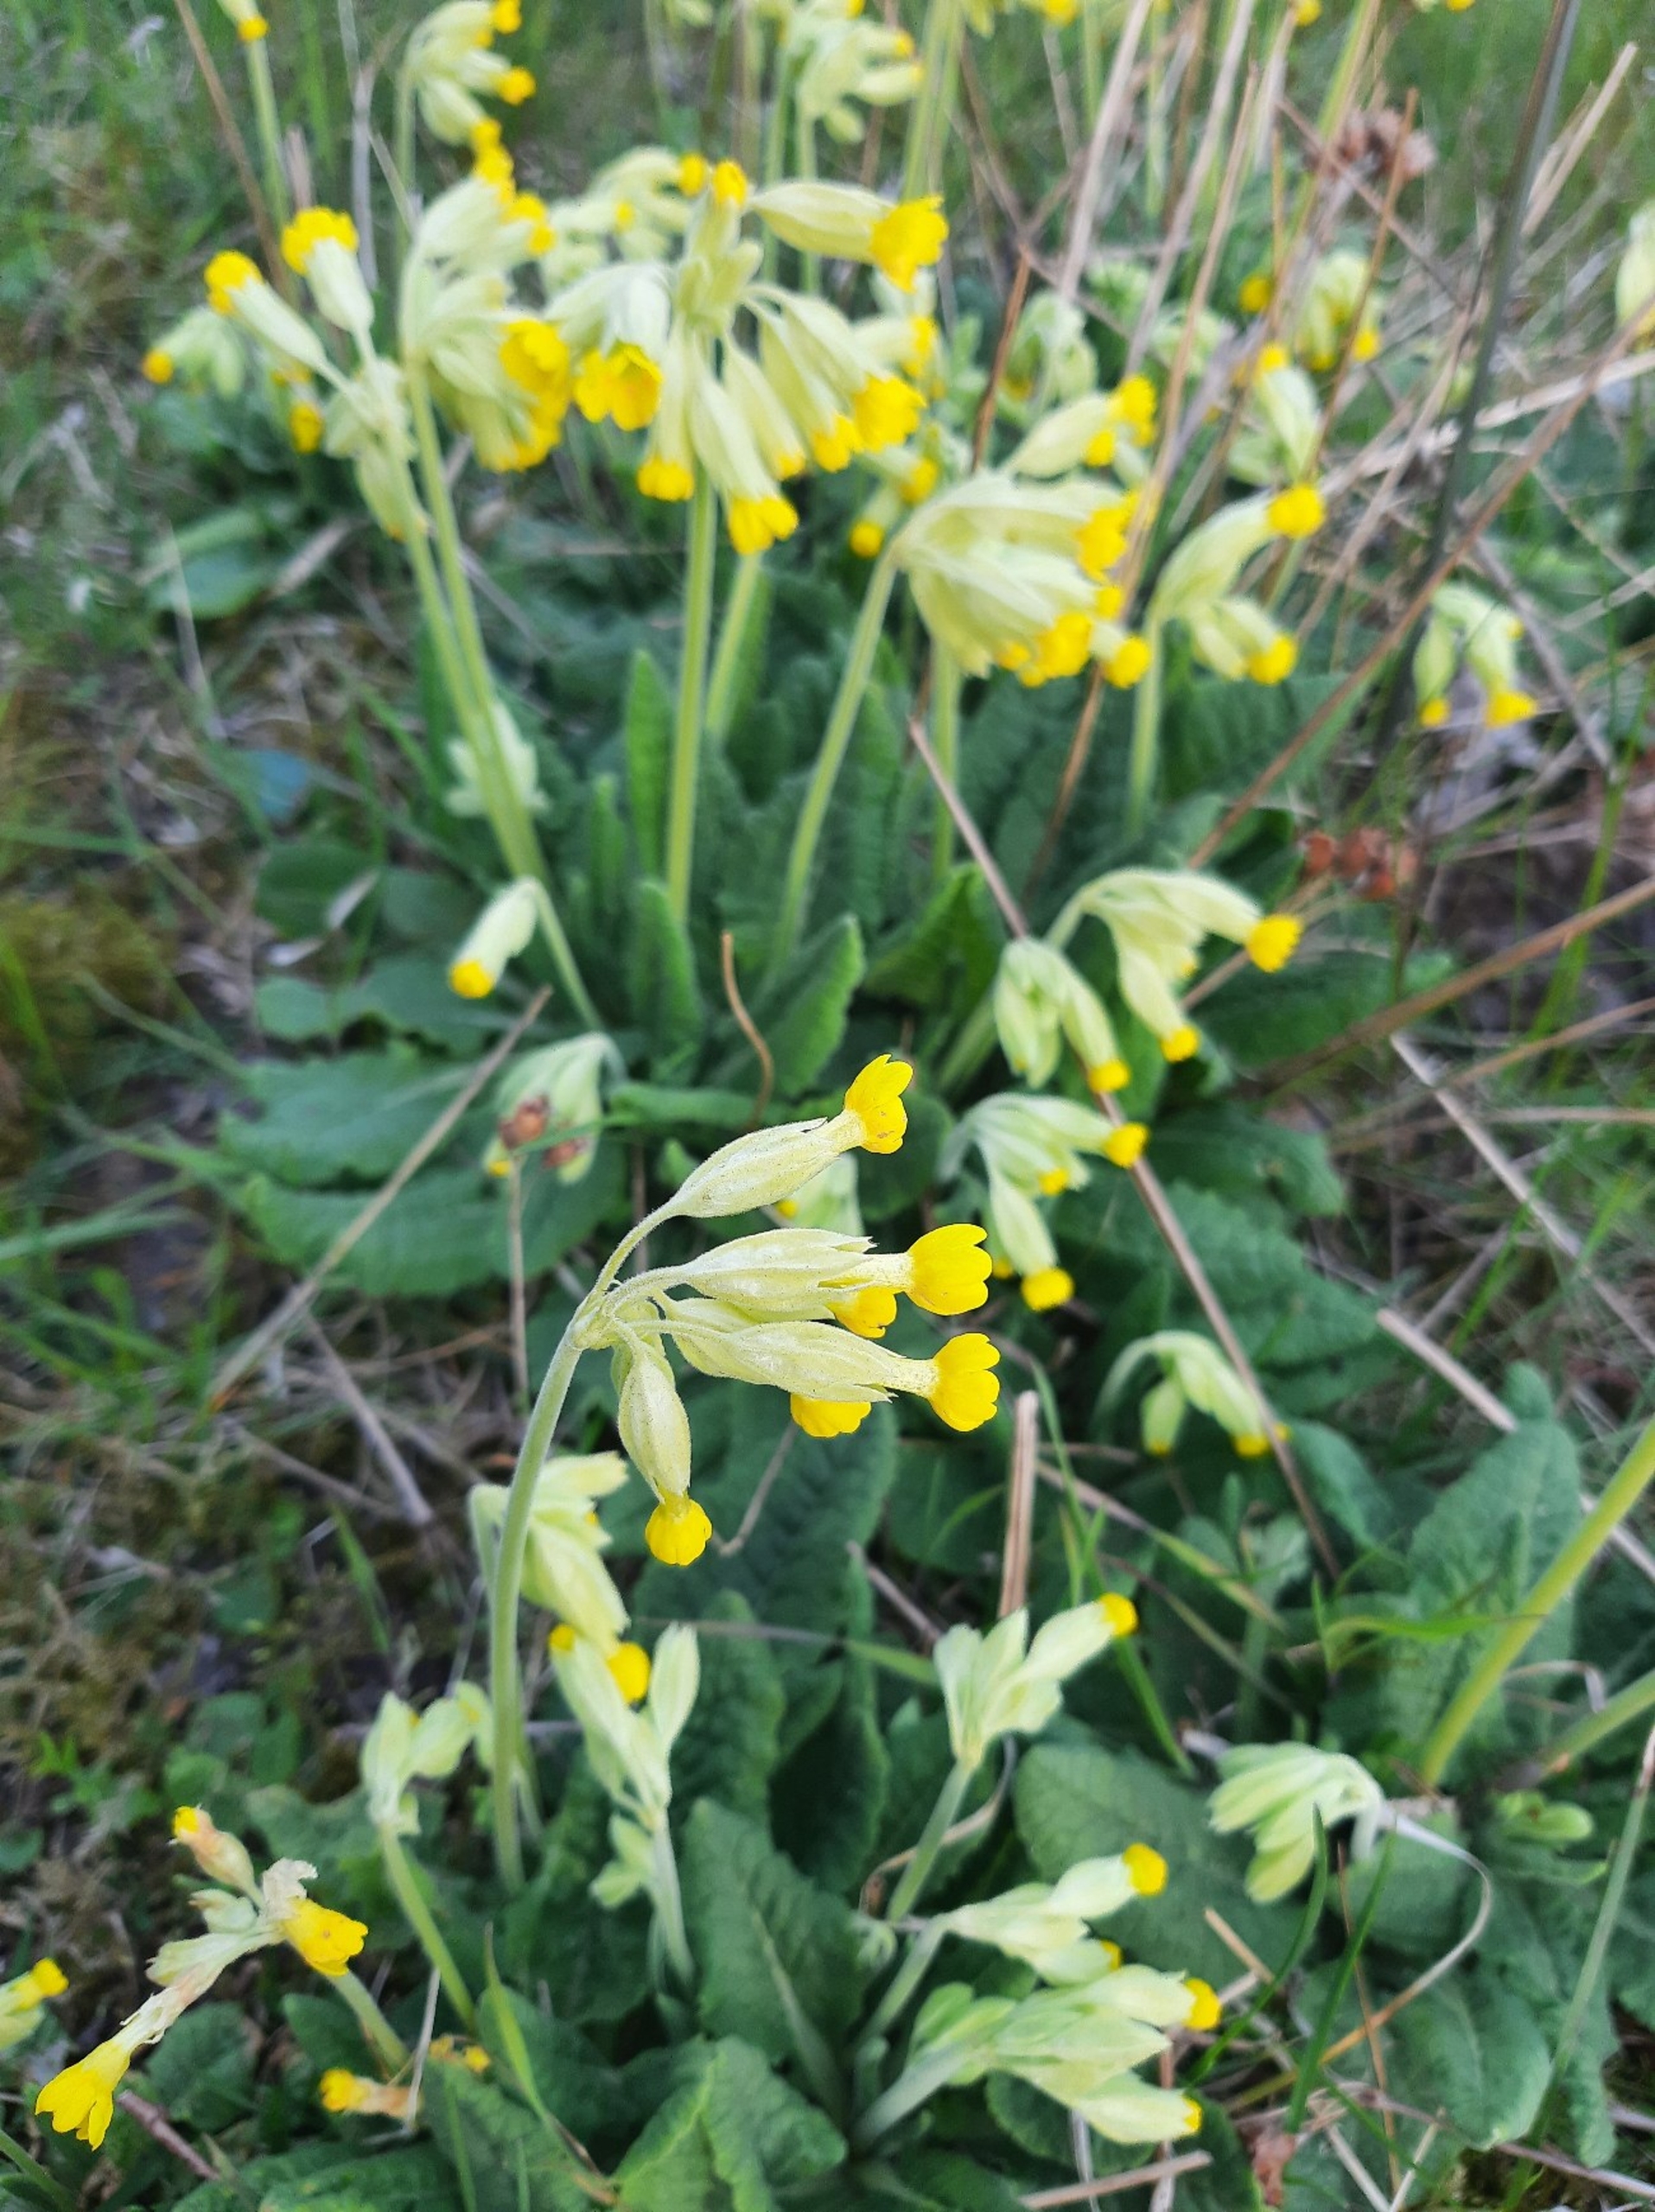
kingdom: Plantae
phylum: Tracheophyta
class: Magnoliopsida
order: Ericales
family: Primulaceae
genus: Primula
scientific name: Primula veris
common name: Hulkravet kodriver
